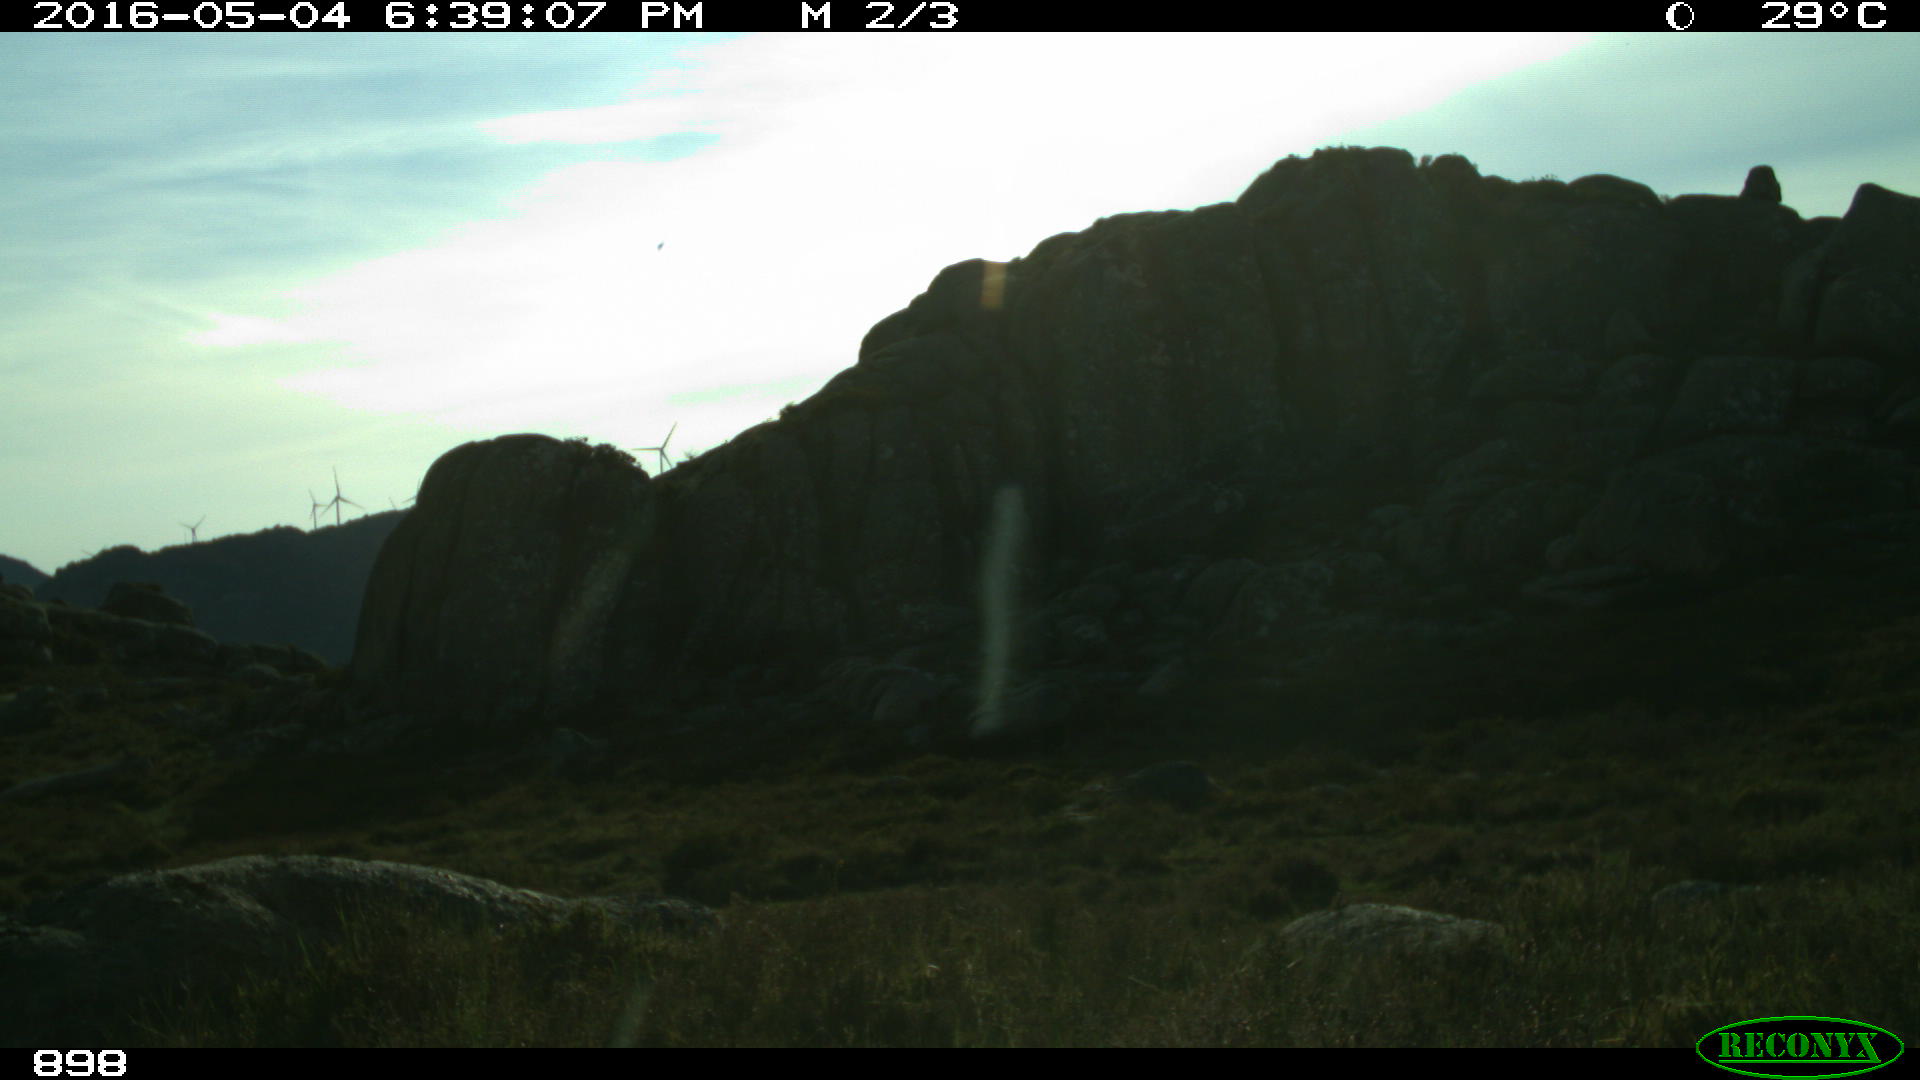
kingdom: Animalia
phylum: Chordata
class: Mammalia
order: Artiodactyla
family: Bovidae
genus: Bos
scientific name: Bos taurus
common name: Domesticated cattle
